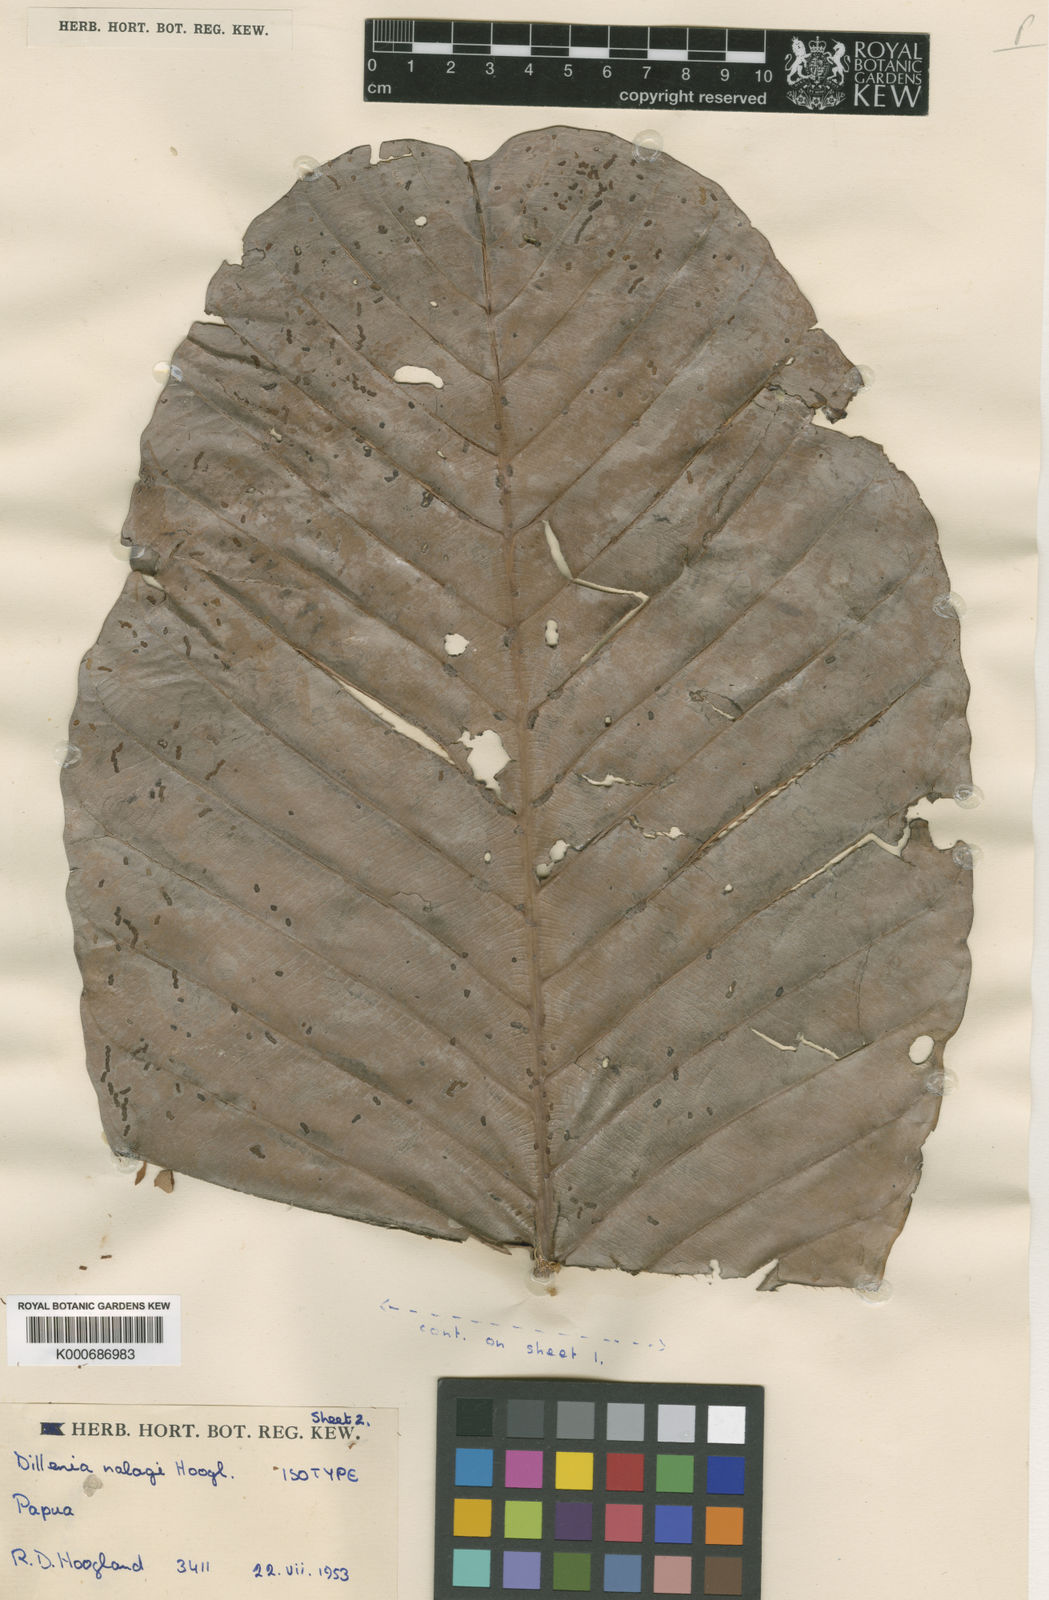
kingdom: Plantae
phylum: Tracheophyta
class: Magnoliopsida
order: Dilleniales
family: Dilleniaceae
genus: Dillenia
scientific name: Dillenia nalagi
